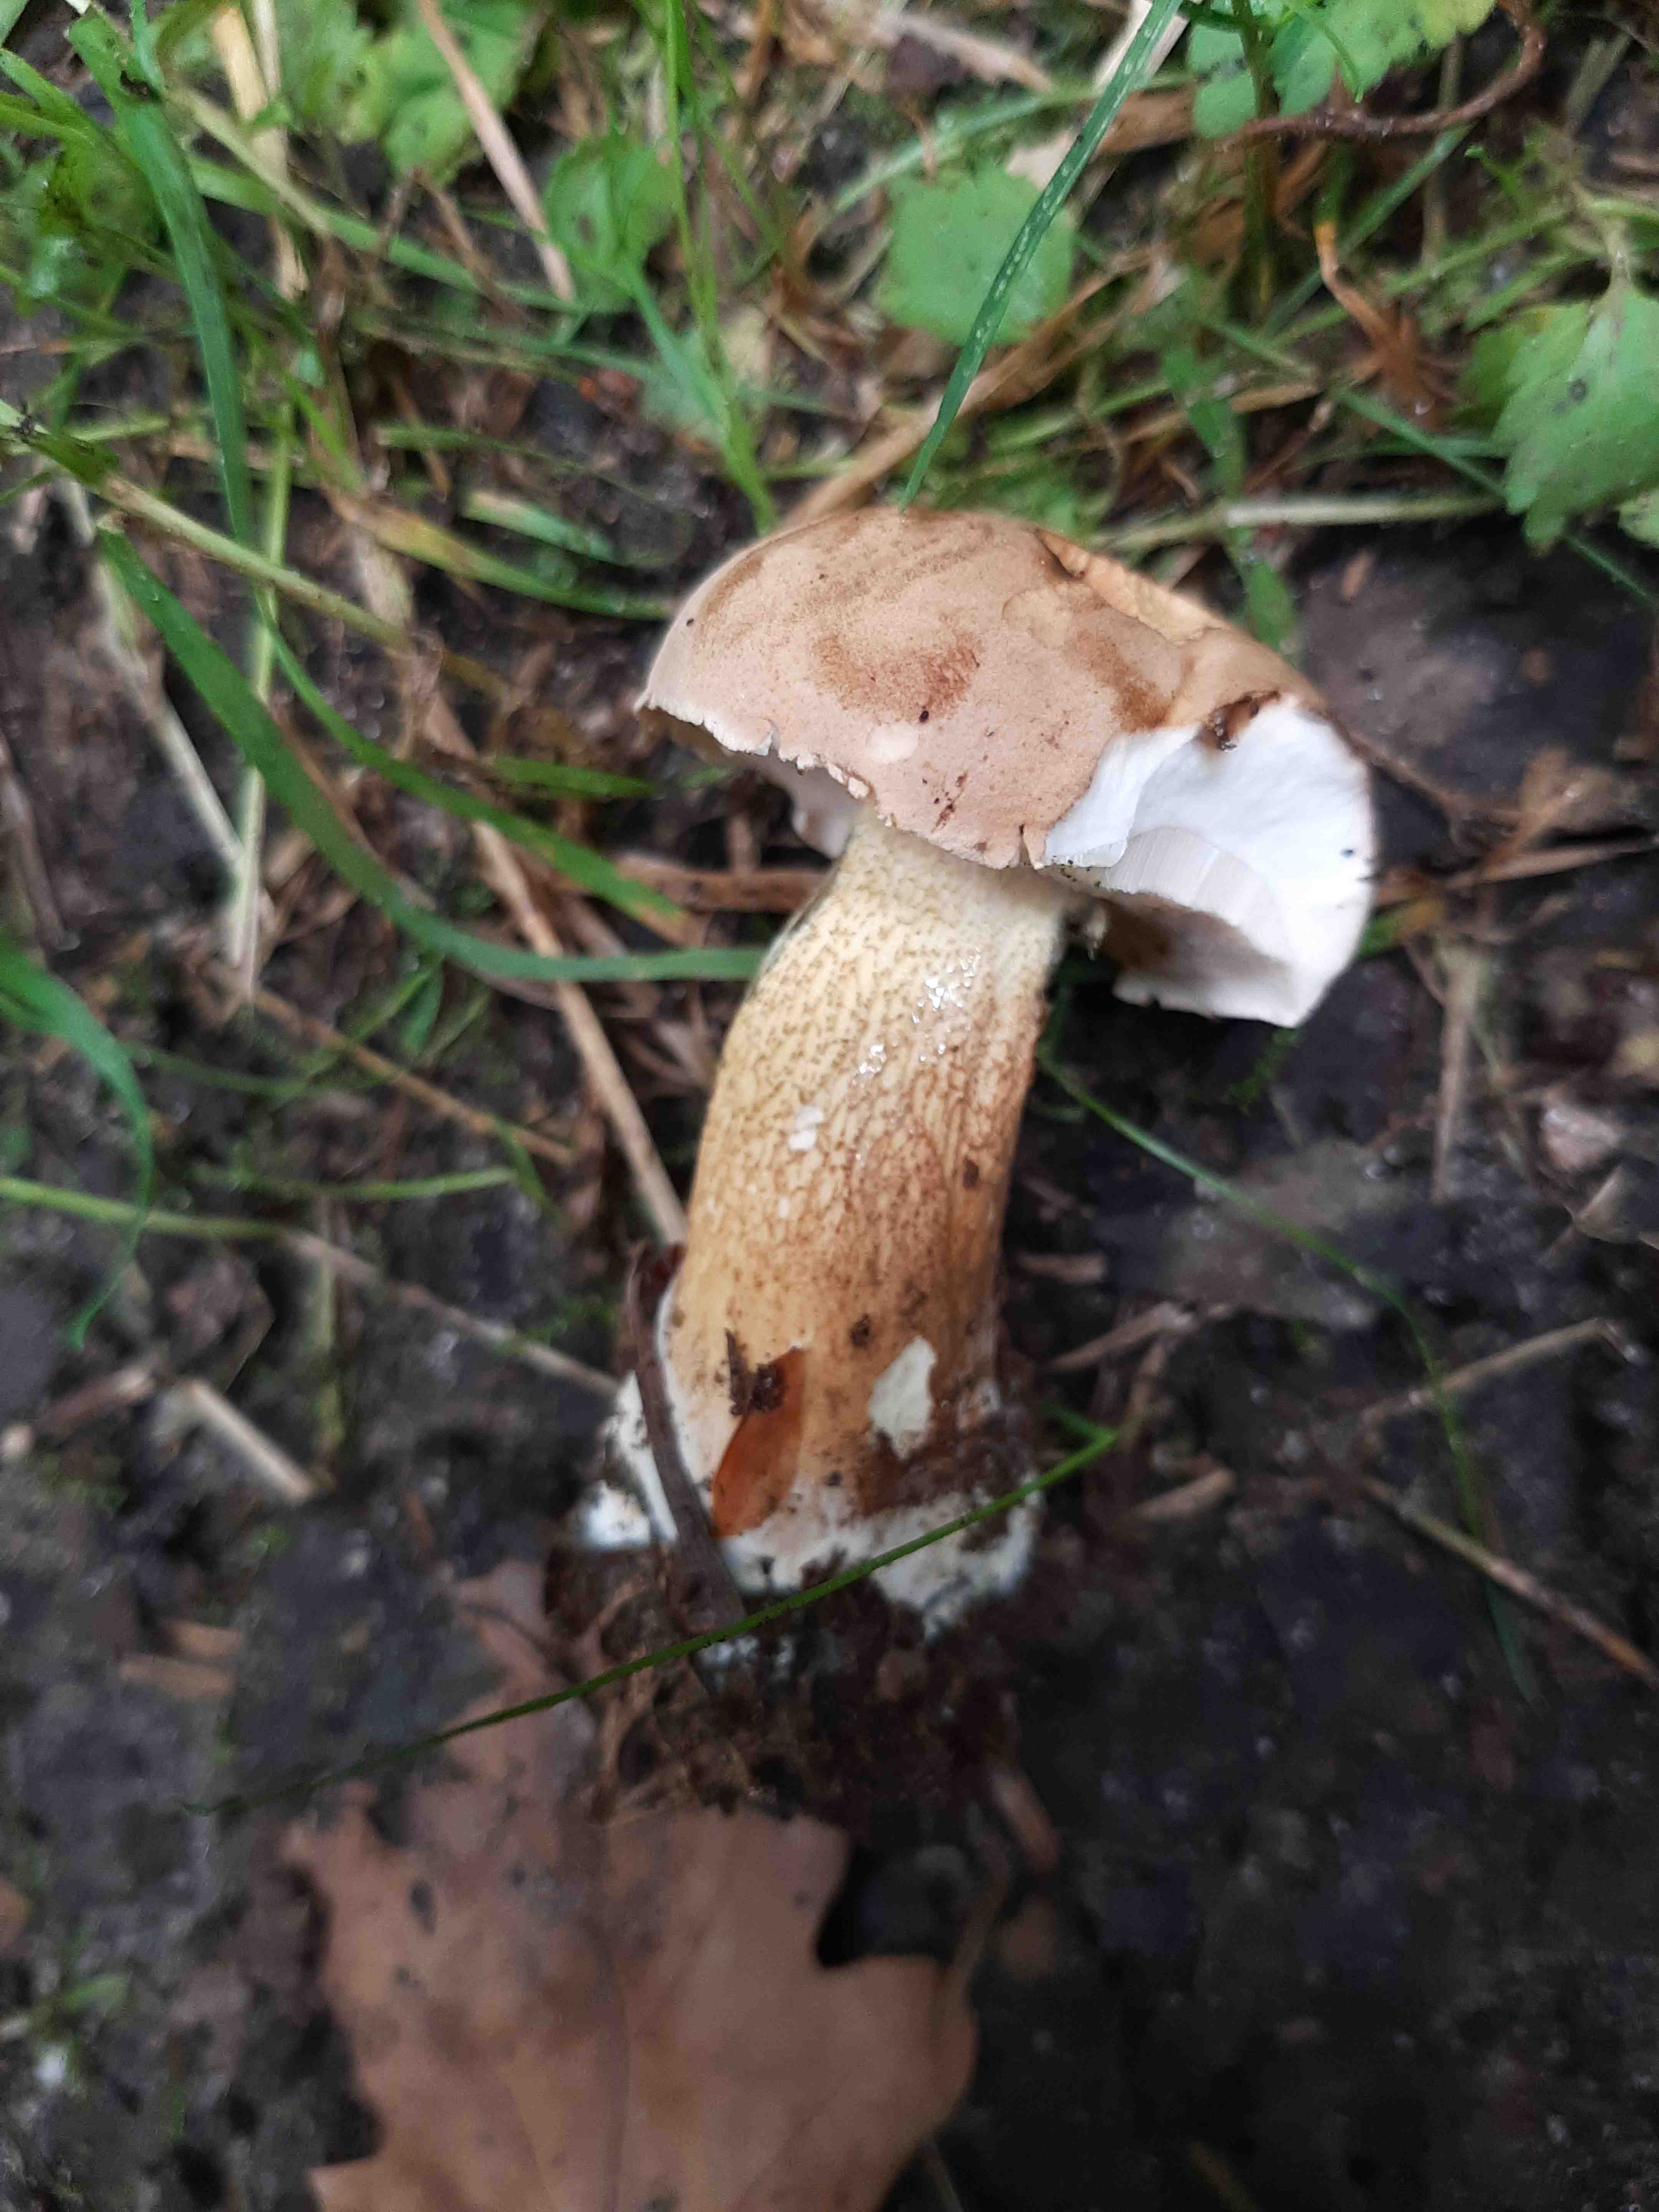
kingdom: Fungi
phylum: Basidiomycota
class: Agaricomycetes
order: Boletales
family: Boletaceae
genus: Tylopilus
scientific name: Tylopilus felleus
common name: galderørhat
